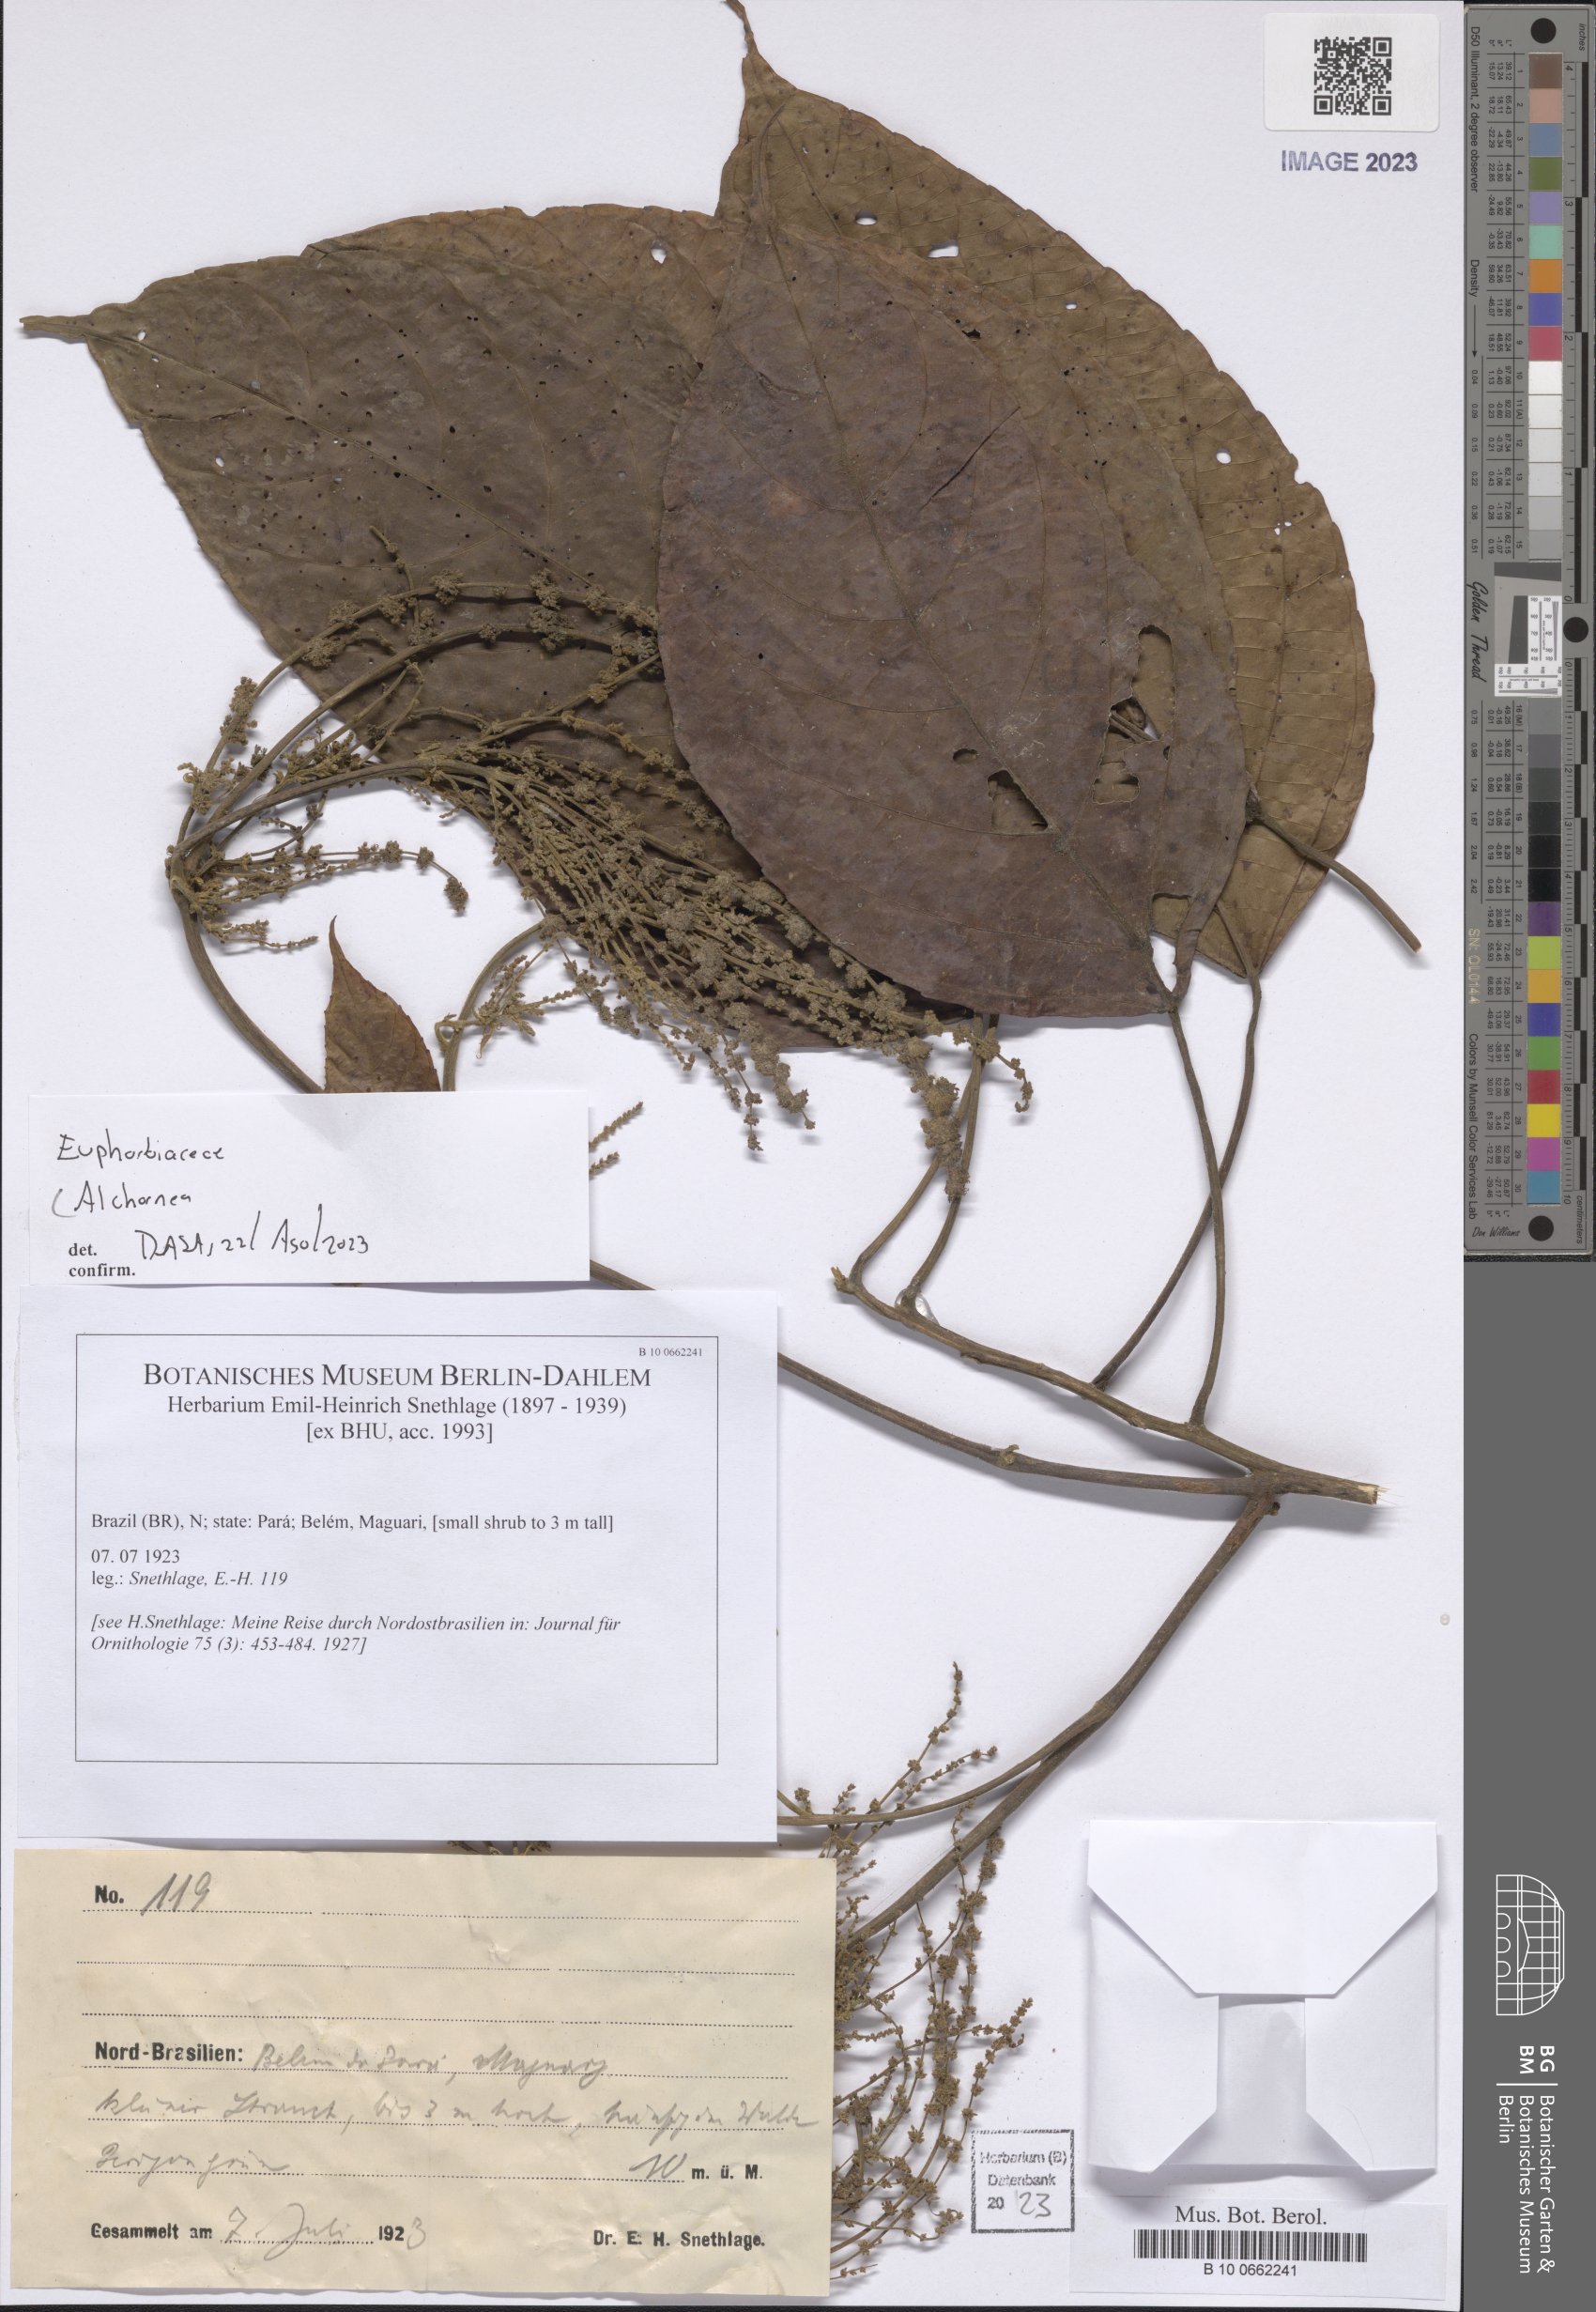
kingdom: Plantae
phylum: Tracheophyta
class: Magnoliopsida
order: Malpighiales
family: Euphorbiaceae
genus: Alchornea
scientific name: Alchornea
